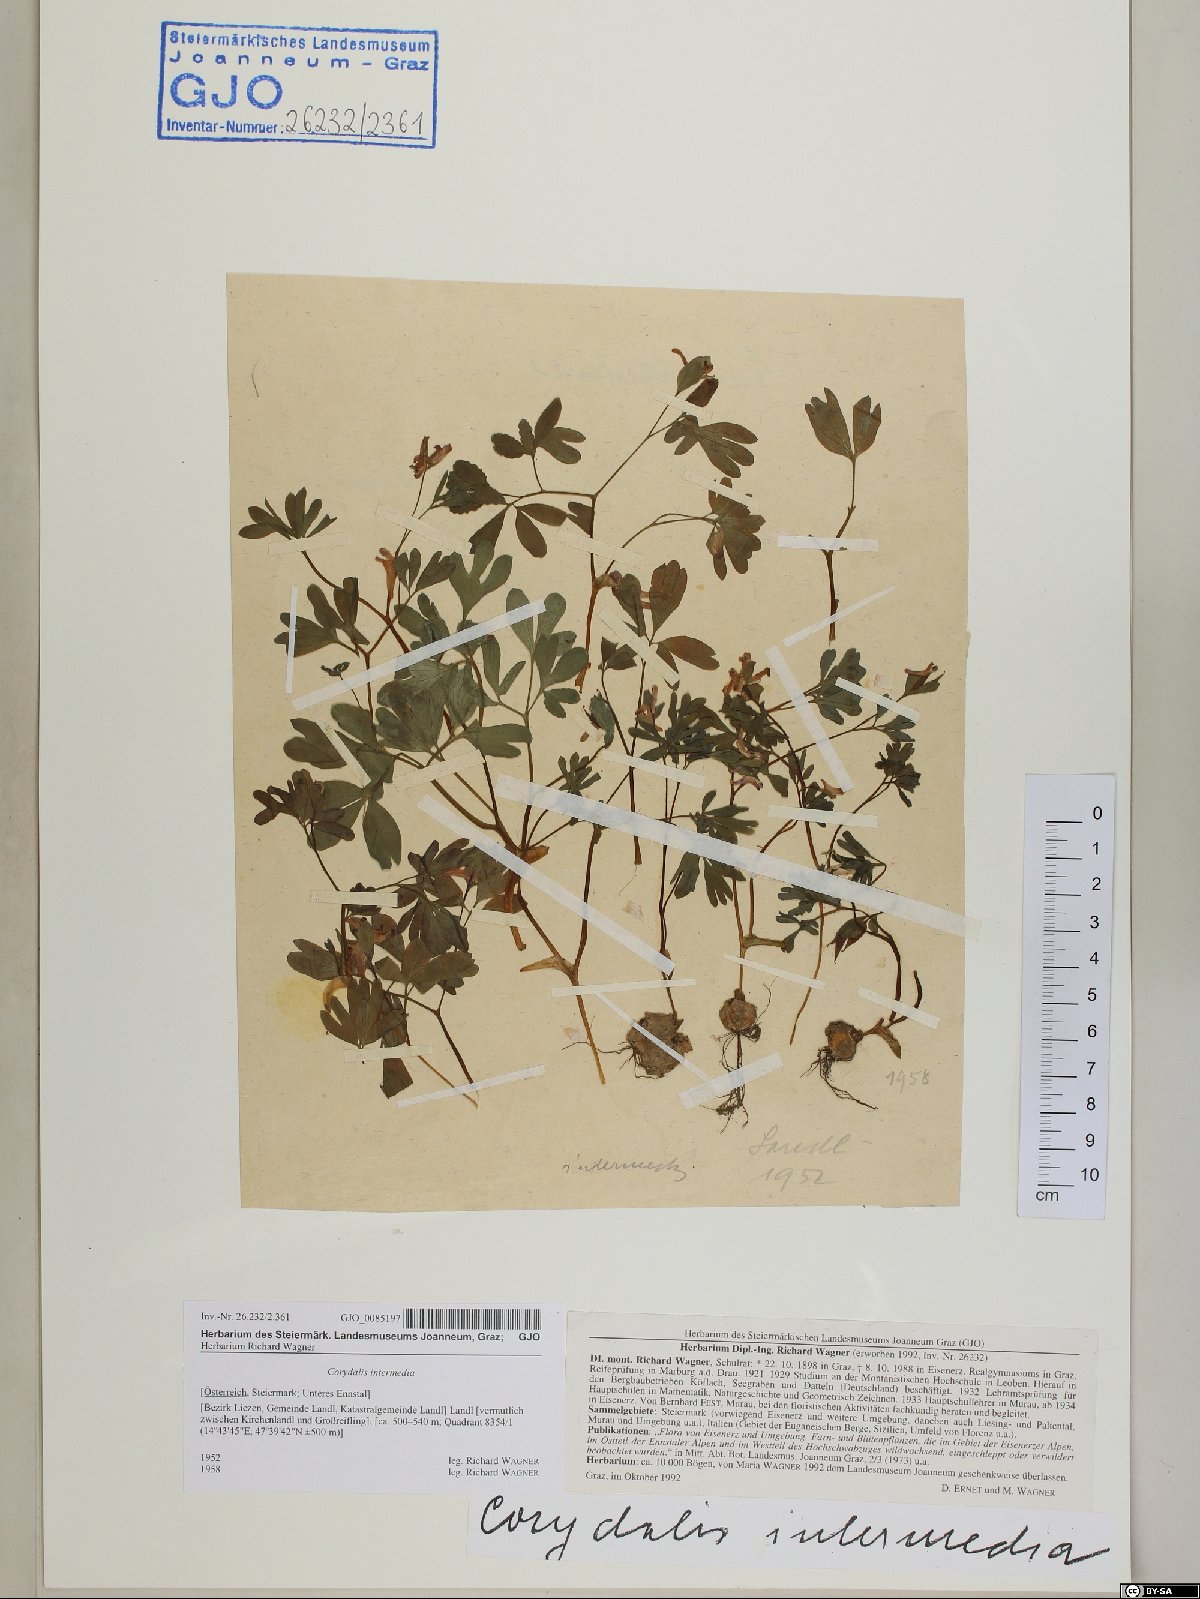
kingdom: Plantae
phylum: Tracheophyta
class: Magnoliopsida
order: Ranunculales
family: Papaveraceae
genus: Corydalis
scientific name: Corydalis intermedia
